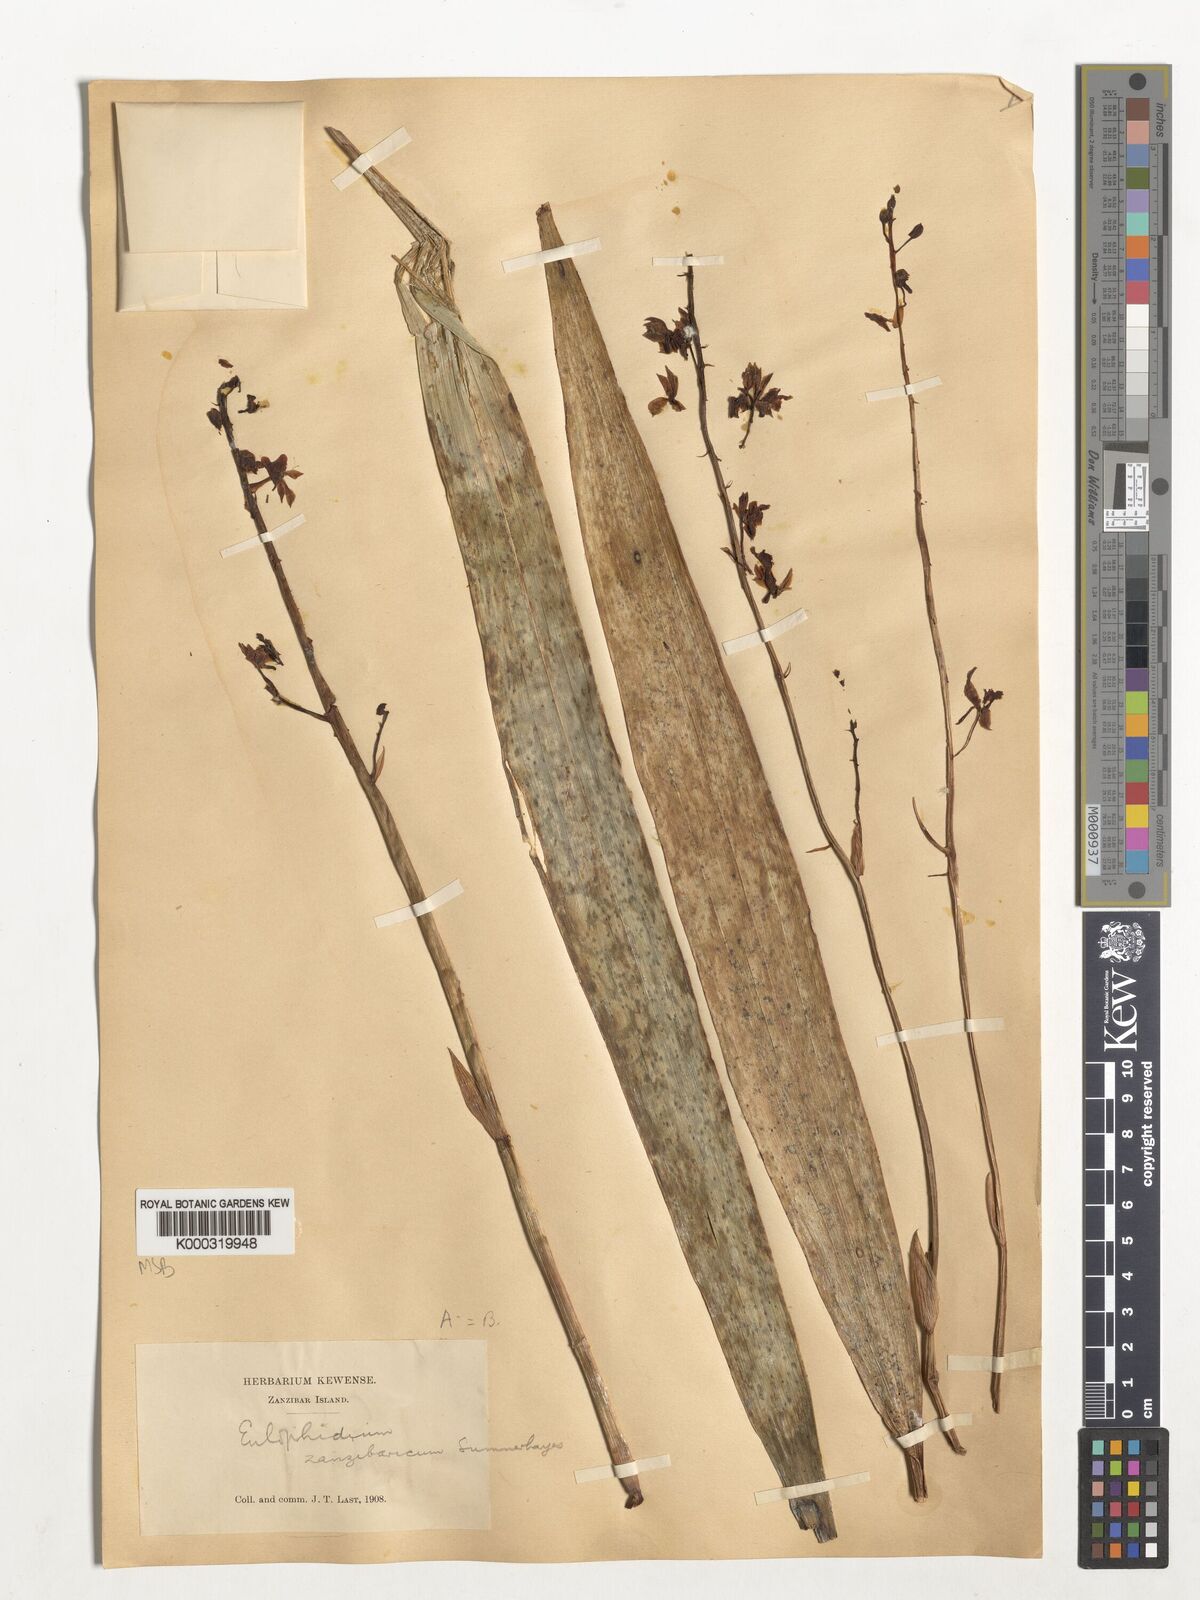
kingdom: Plantae
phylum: Tracheophyta
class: Liliopsida
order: Asparagales
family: Orchidaceae
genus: Eulophia
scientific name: Eulophia zanzibarica
